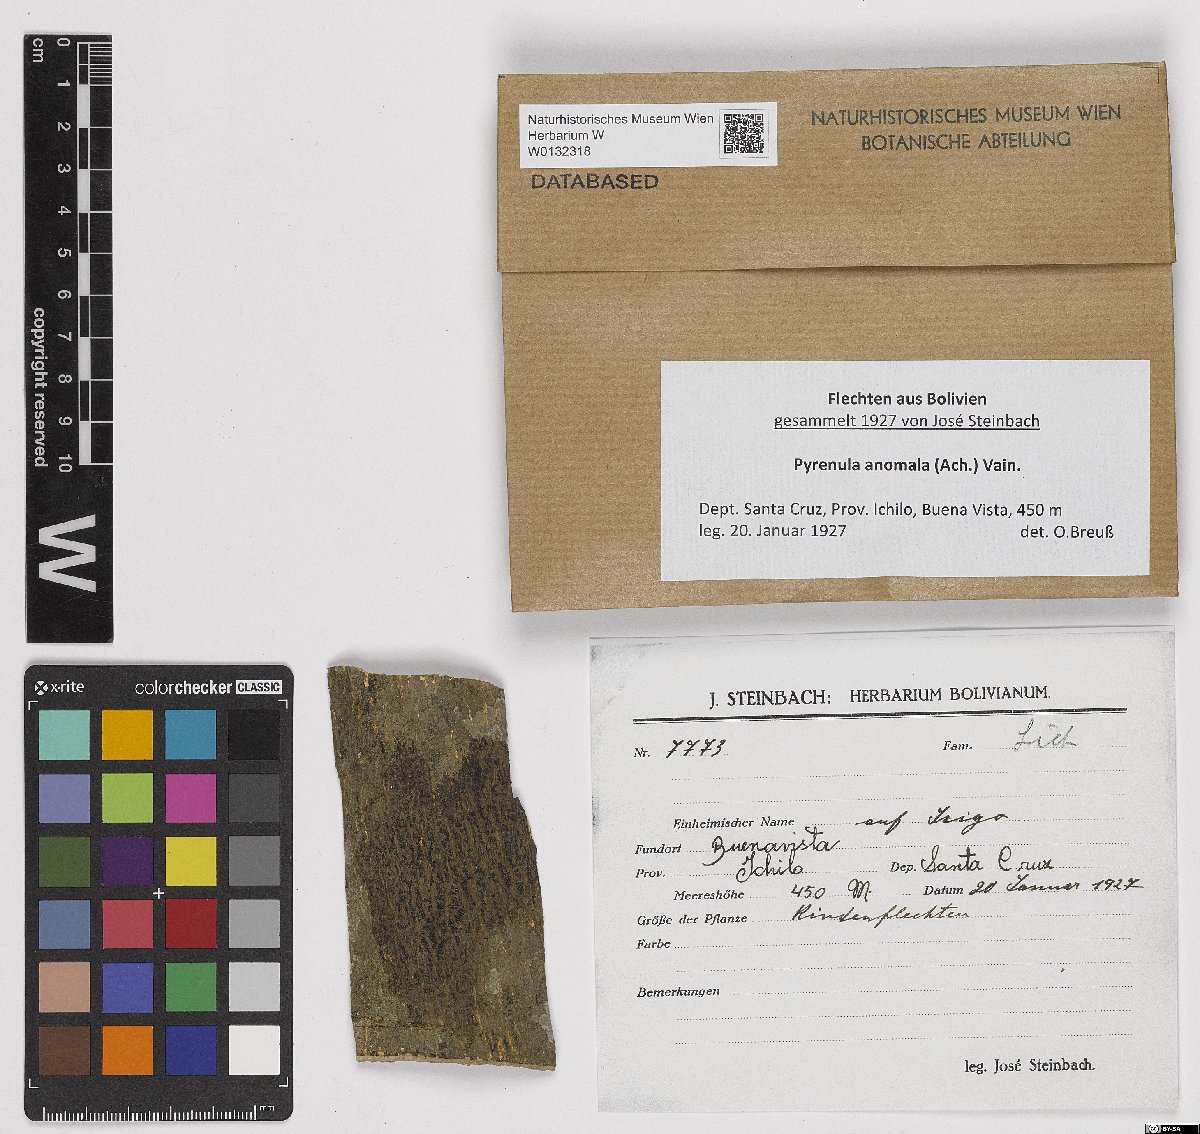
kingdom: Fungi
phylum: Ascomycota
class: Eurotiomycetes
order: Pyrenulales
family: Pyrenulaceae
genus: Pyrenula
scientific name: Pyrenula anomala
